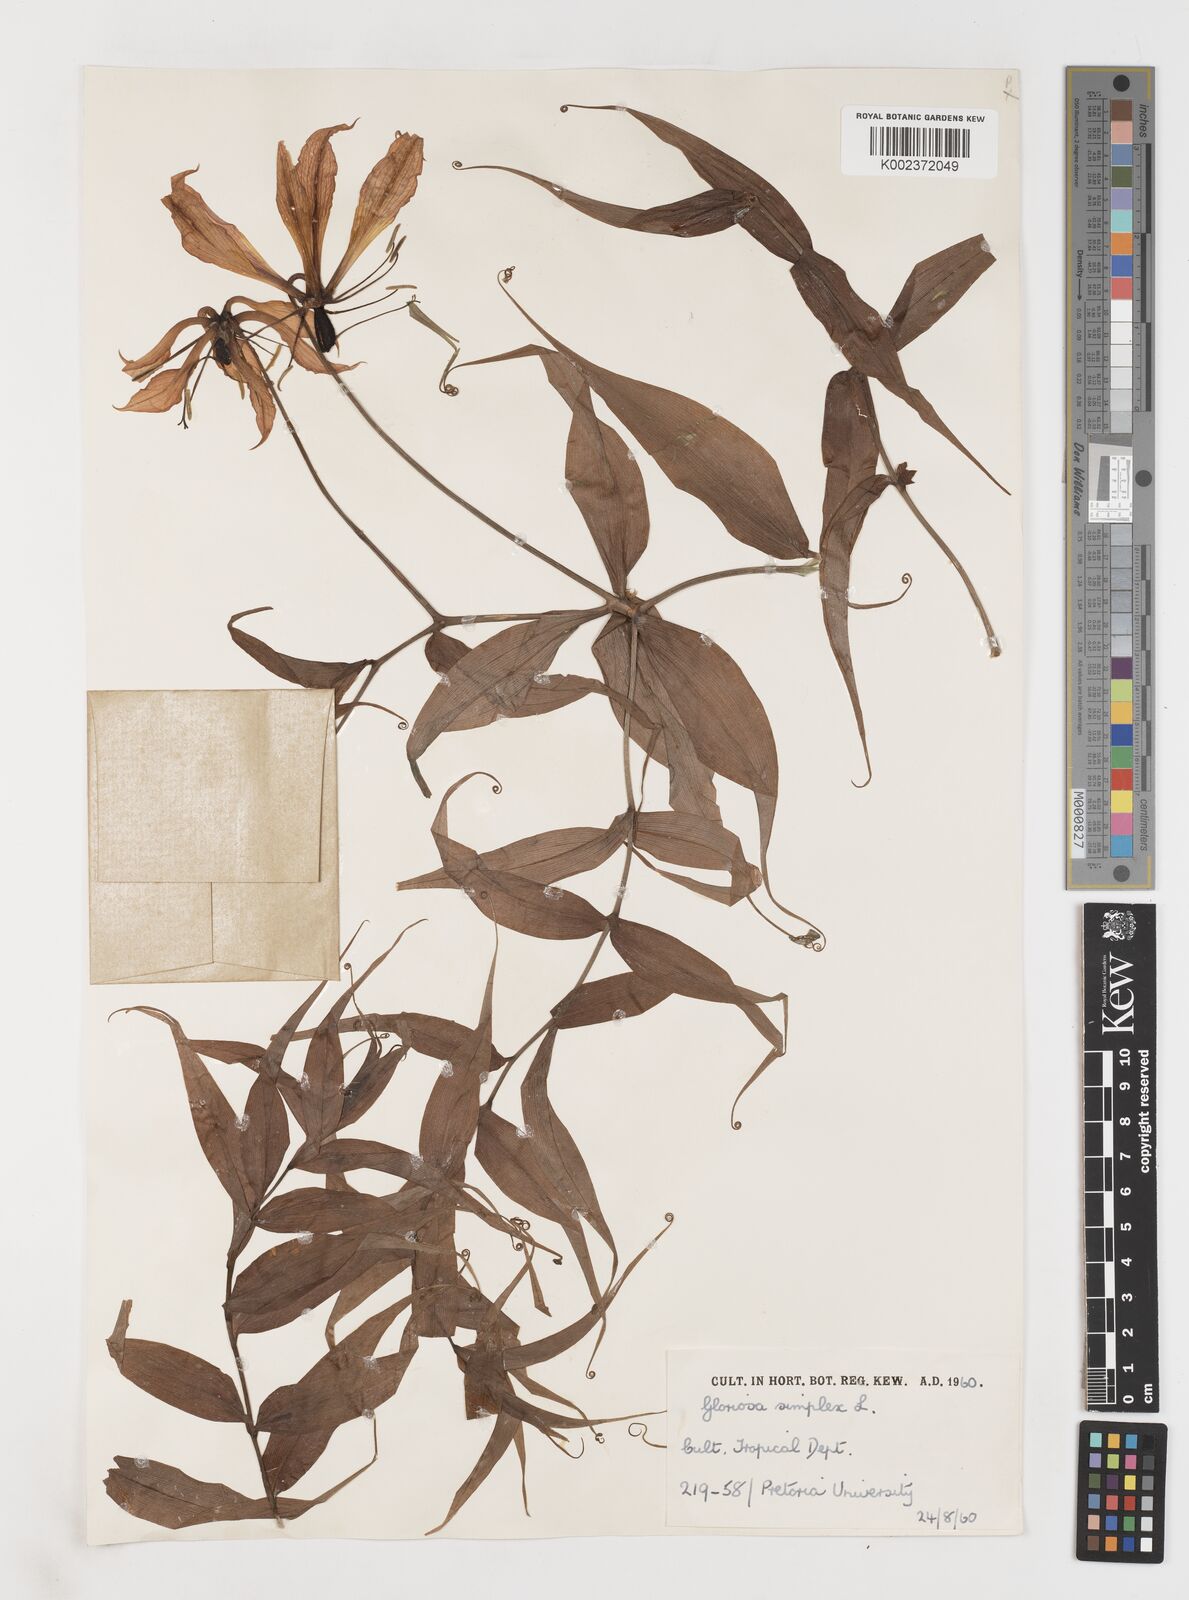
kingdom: Plantae
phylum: Tracheophyta
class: Liliopsida
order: Liliales
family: Colchicaceae
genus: Gloriosa
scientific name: Gloriosa simplex
